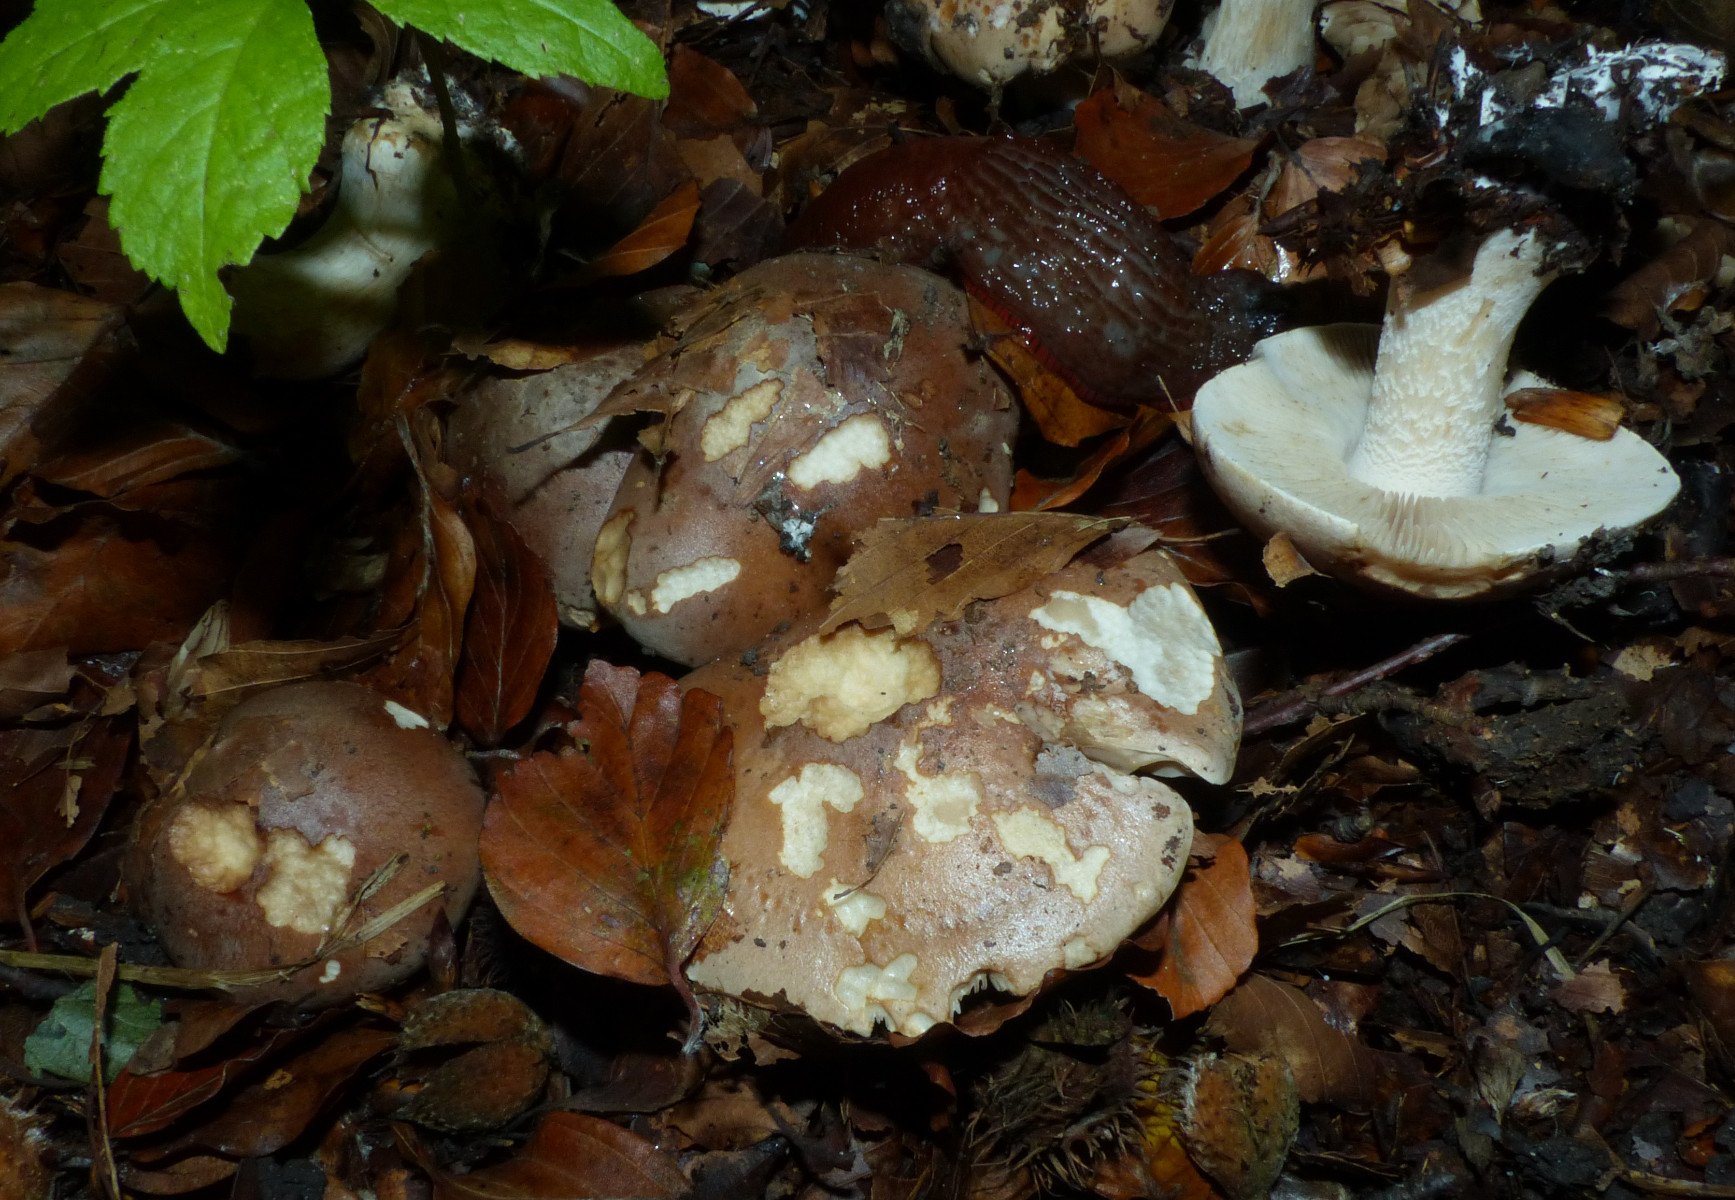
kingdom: Fungi
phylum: Basidiomycota
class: Agaricomycetes
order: Agaricales
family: Hymenogastraceae
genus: Hebeloma
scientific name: Hebeloma sinapizans
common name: ræddike-tåreblad
